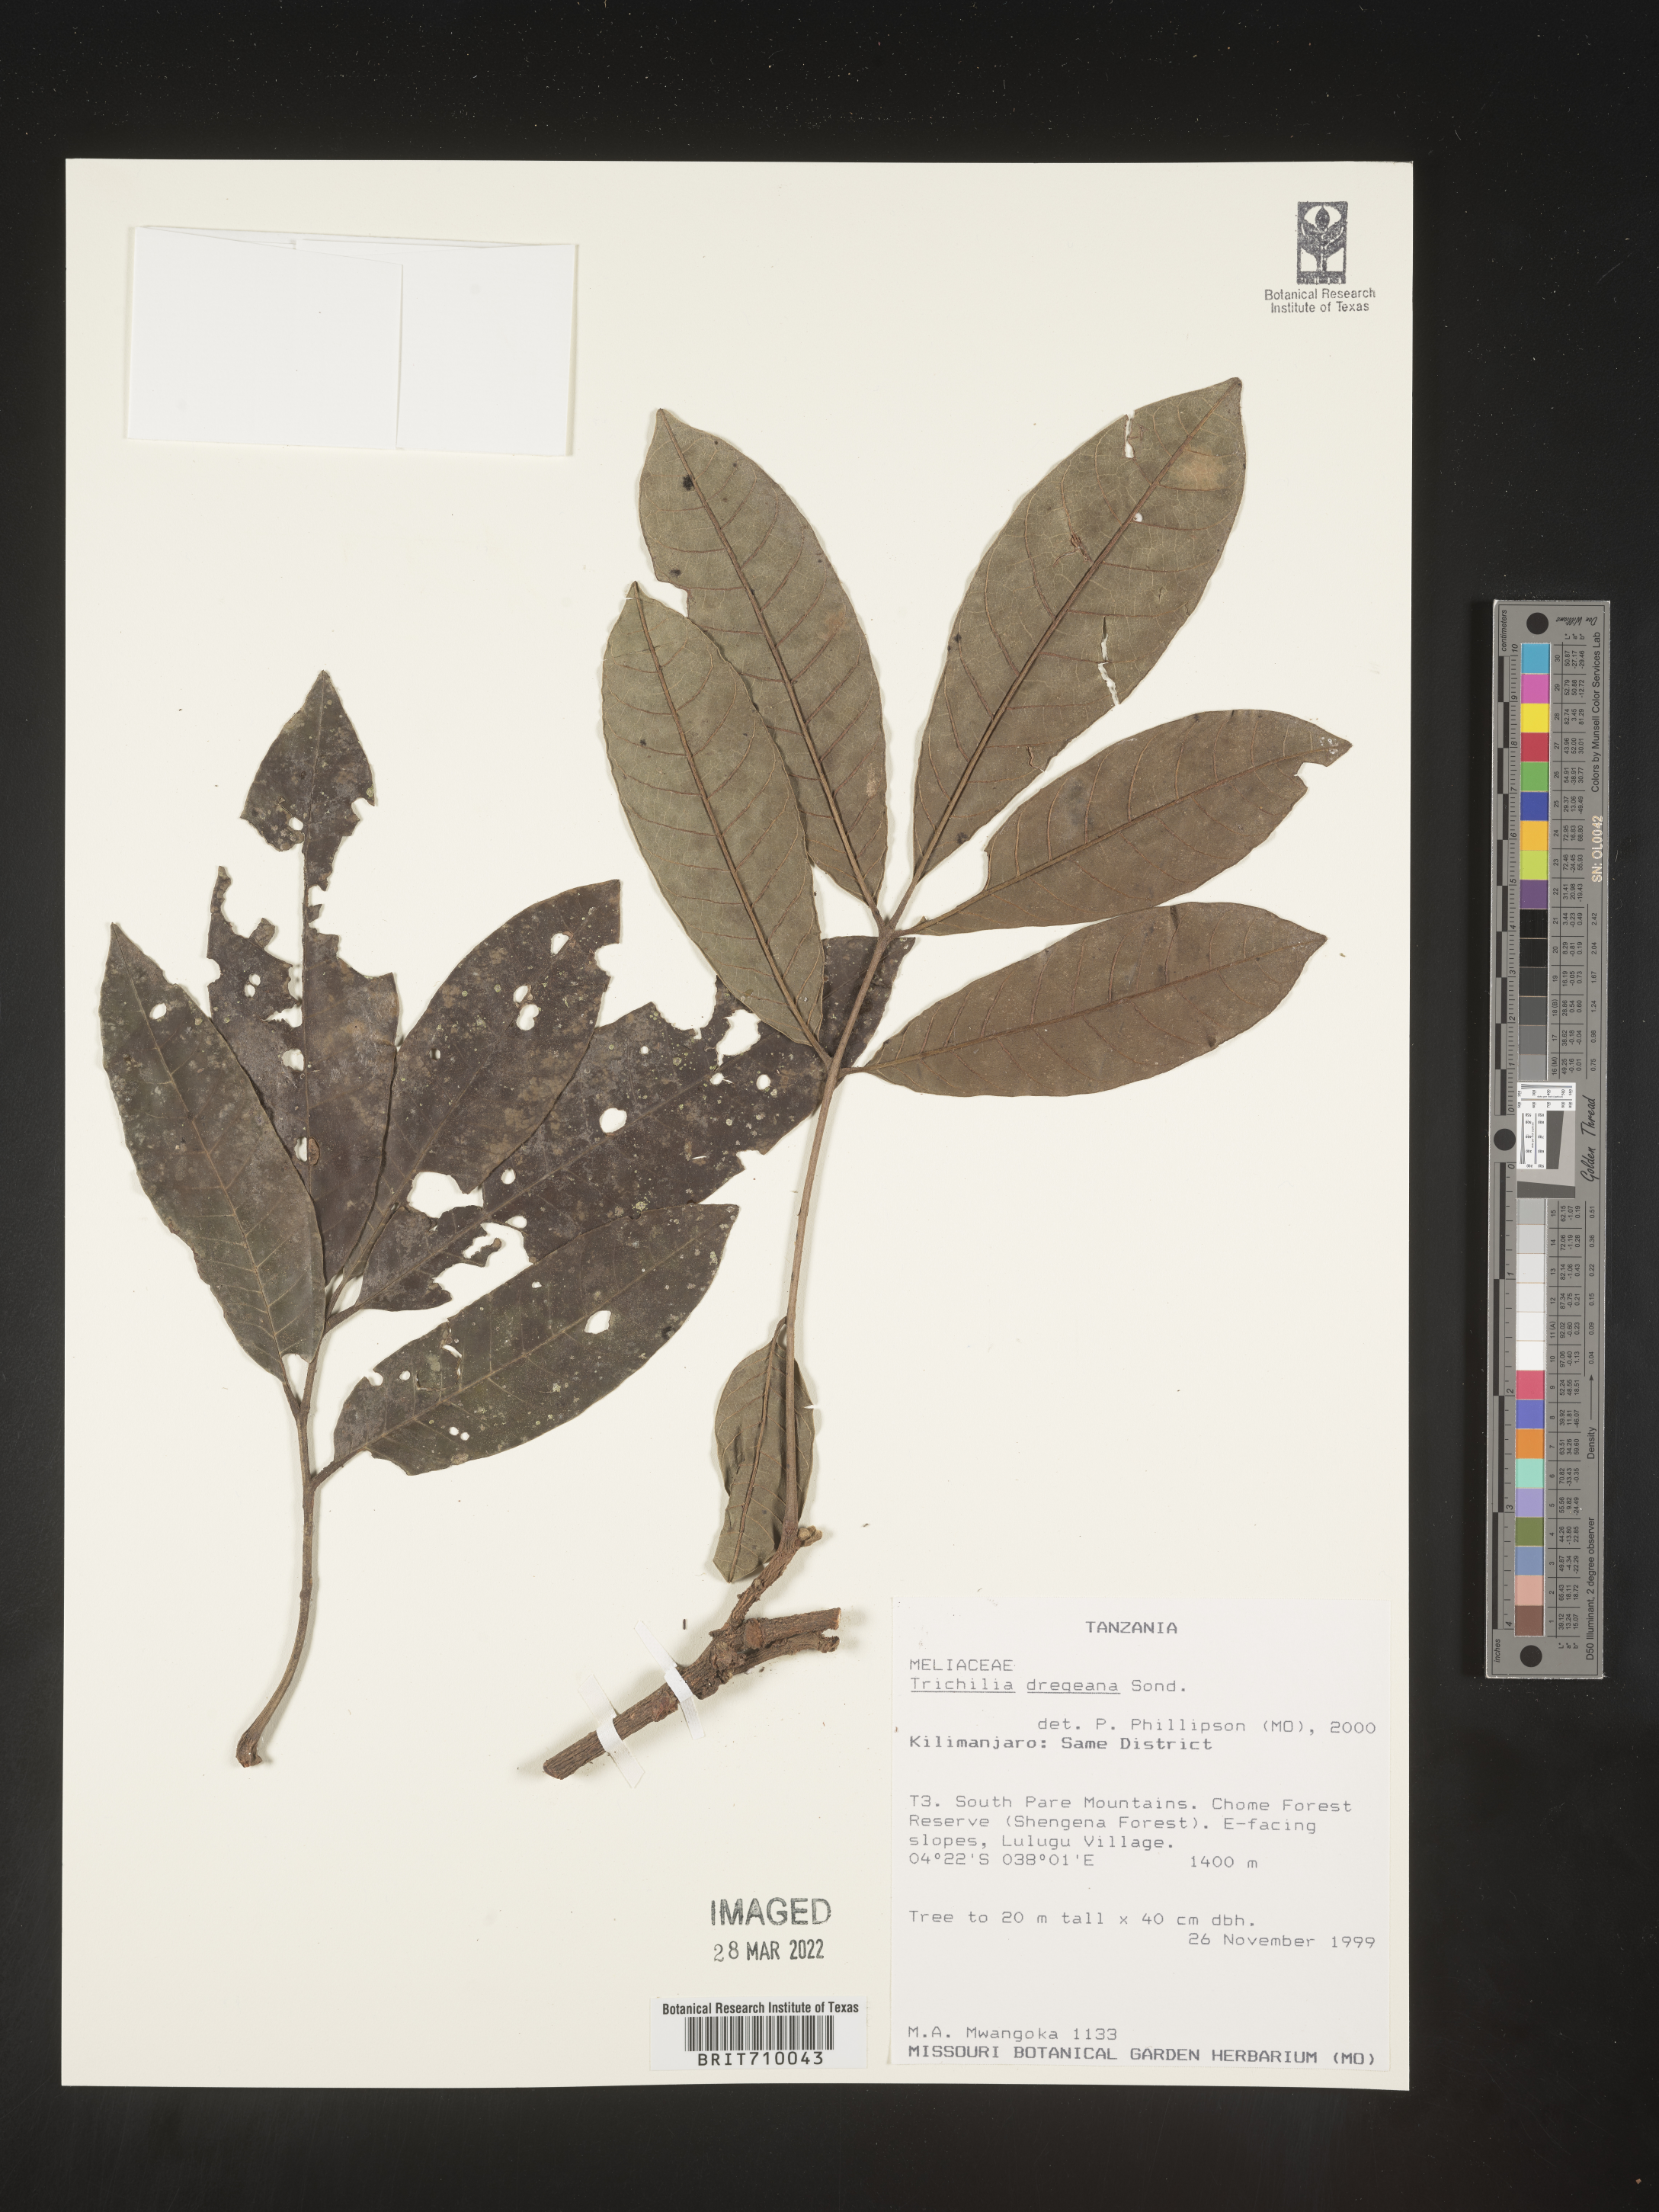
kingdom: Plantae
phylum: Tracheophyta
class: Magnoliopsida
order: Sapindales
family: Meliaceae
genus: Trichilia
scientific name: Trichilia
